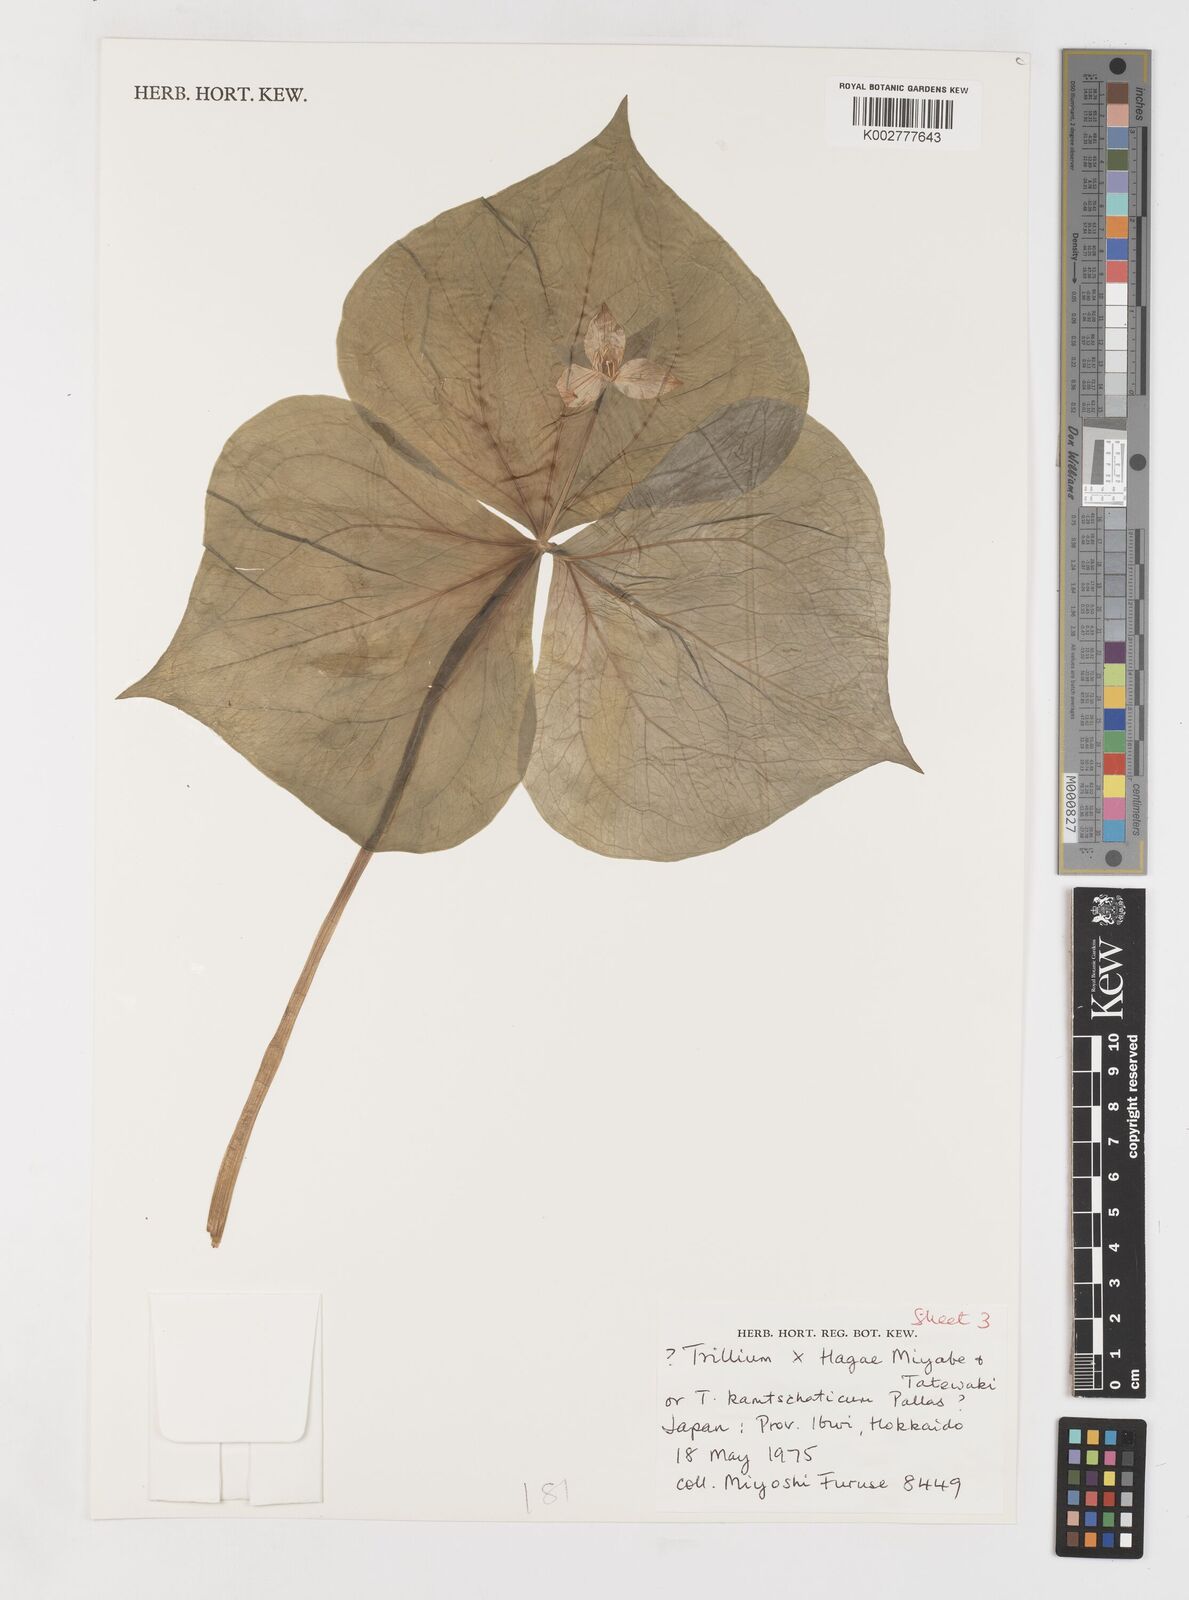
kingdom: Plantae
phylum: Tracheophyta
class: Liliopsida
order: Liliales
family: Melanthiaceae
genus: Trillium
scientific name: Trillium hagae
